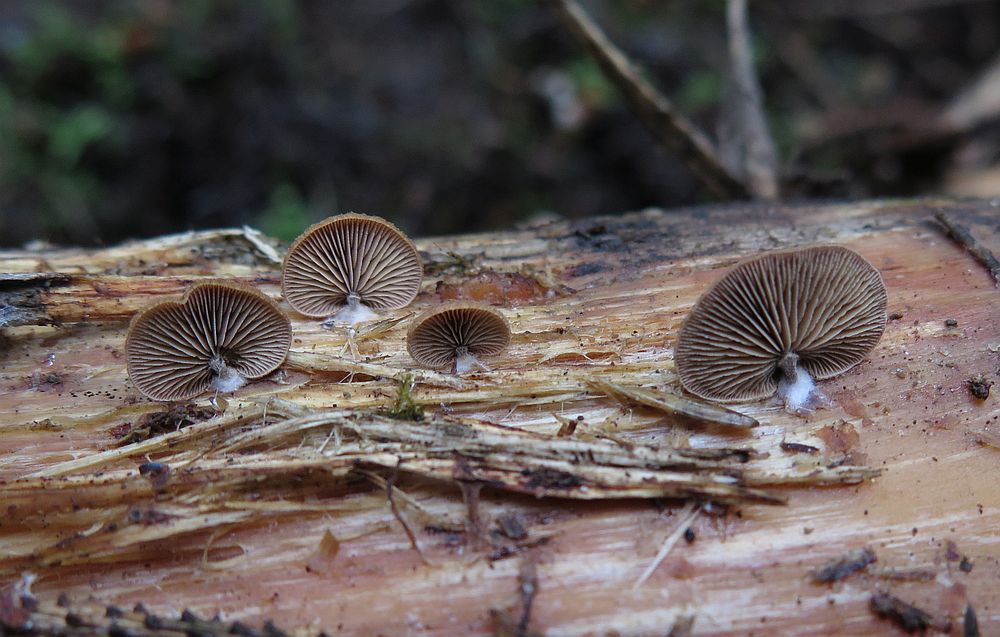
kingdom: Fungi
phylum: Basidiomycota
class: Agaricomycetes
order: Agaricales
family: Strophariaceae
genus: Deconica
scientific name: Deconica horizontalis
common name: ved-stråhat
